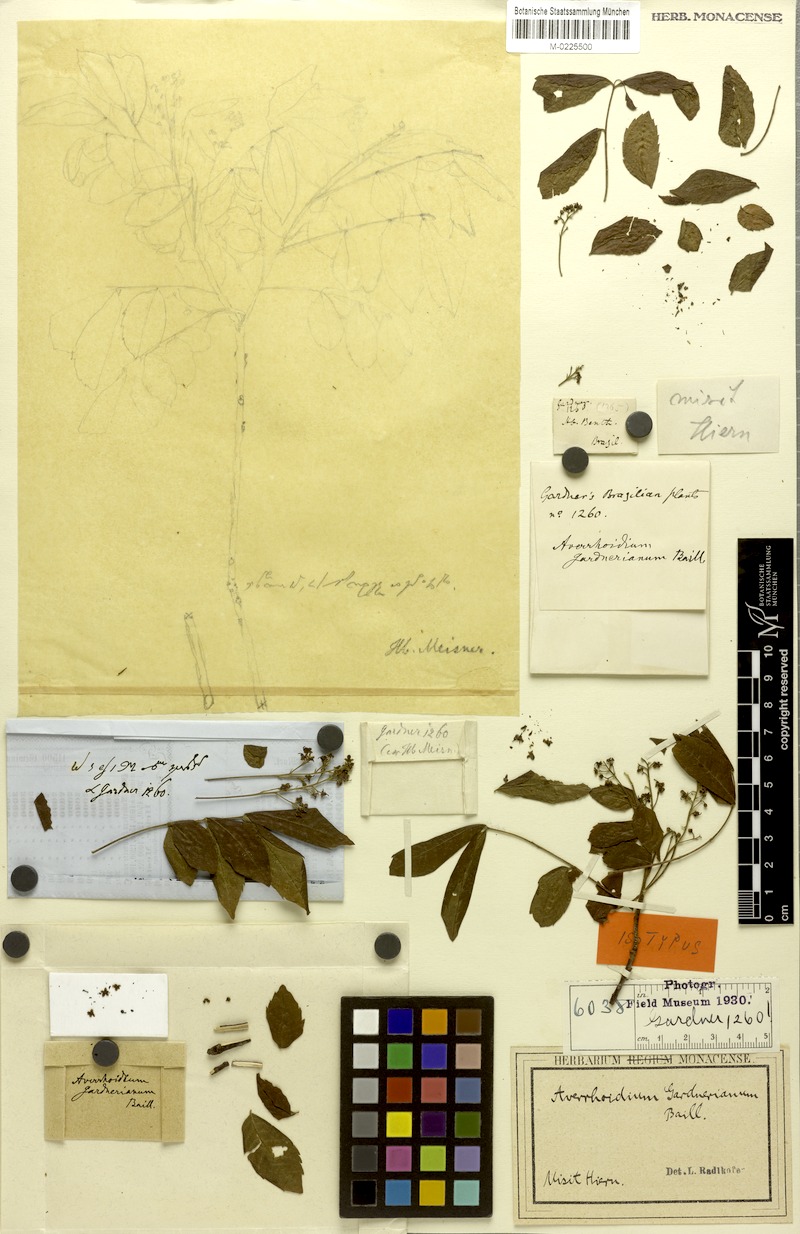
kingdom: Plantae
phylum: Tracheophyta
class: Magnoliopsida
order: Sapindales
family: Sapindaceae
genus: Averrhoidium
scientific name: Averrhoidium paraguaiense
